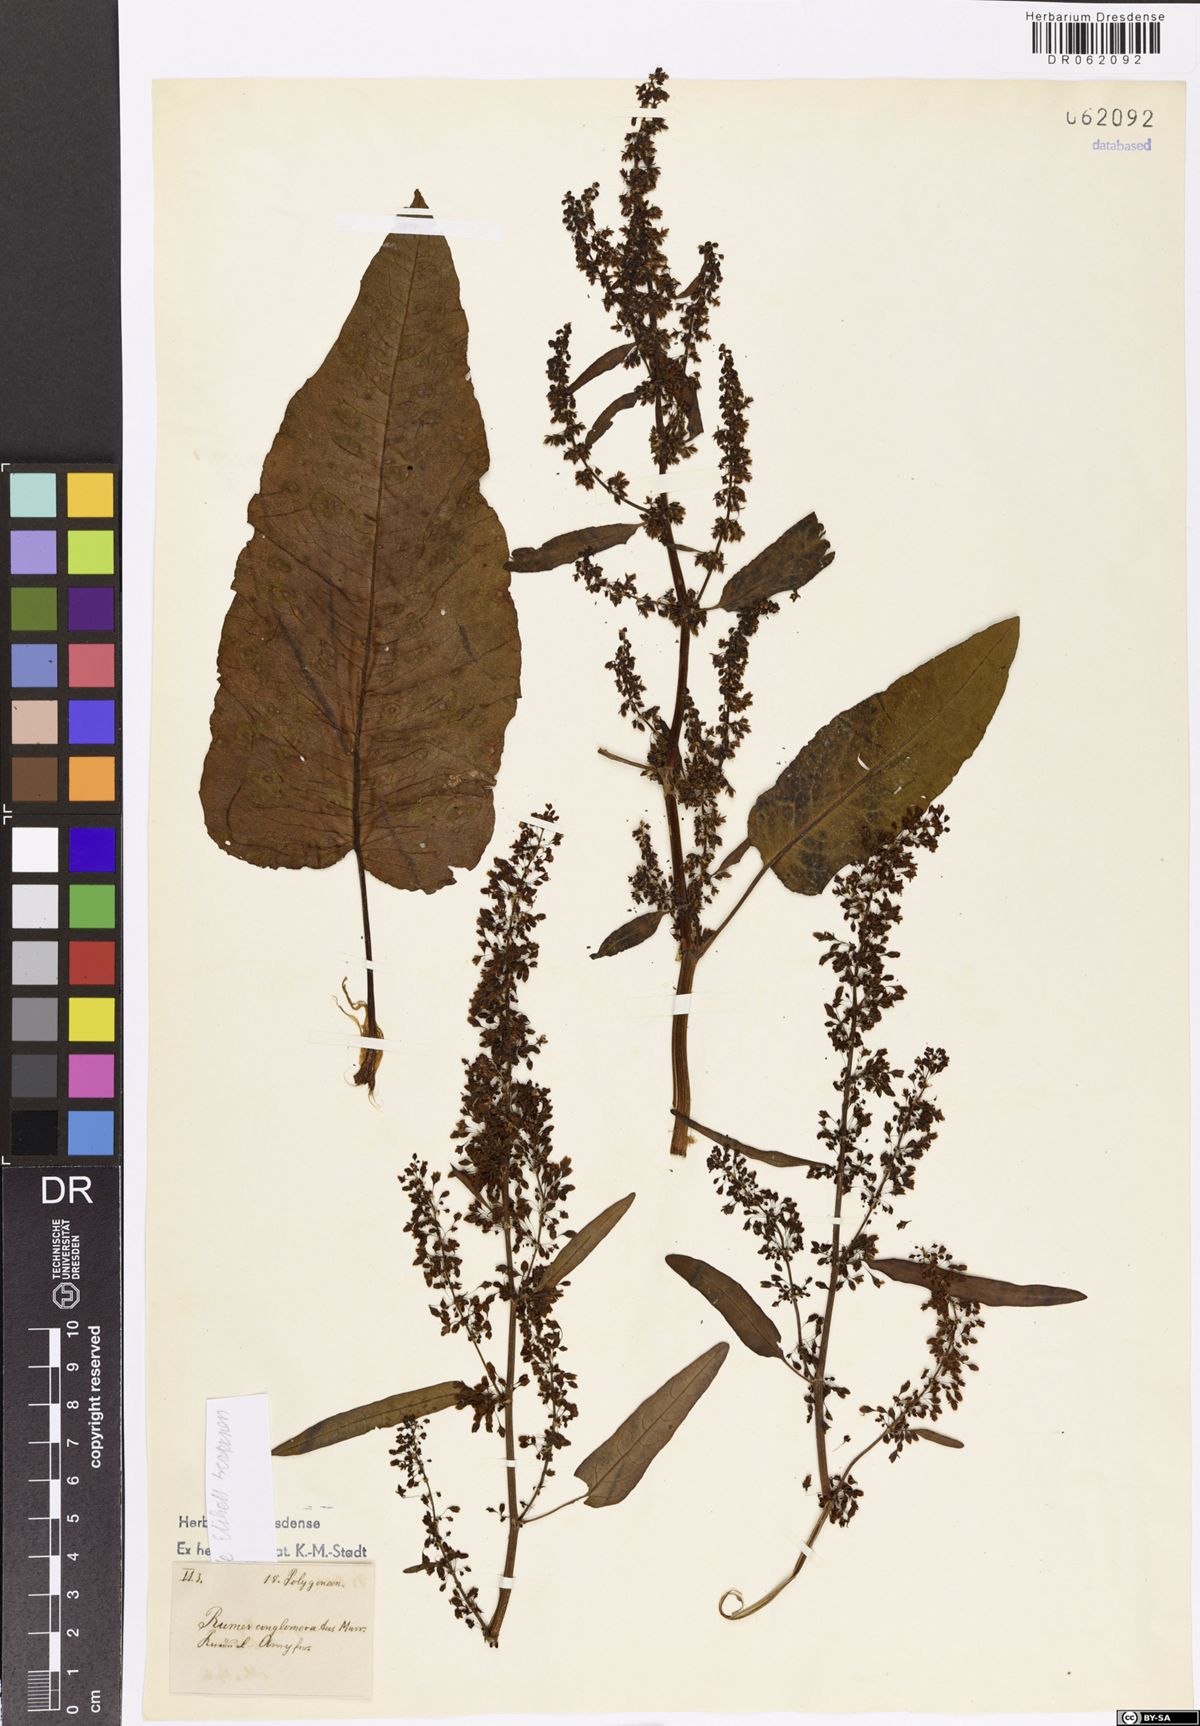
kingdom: Plantae
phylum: Tracheophyta
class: Magnoliopsida
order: Caryophyllales
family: Polygonaceae
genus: Rumex
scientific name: Rumex conglomeratus
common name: Clustered dock
